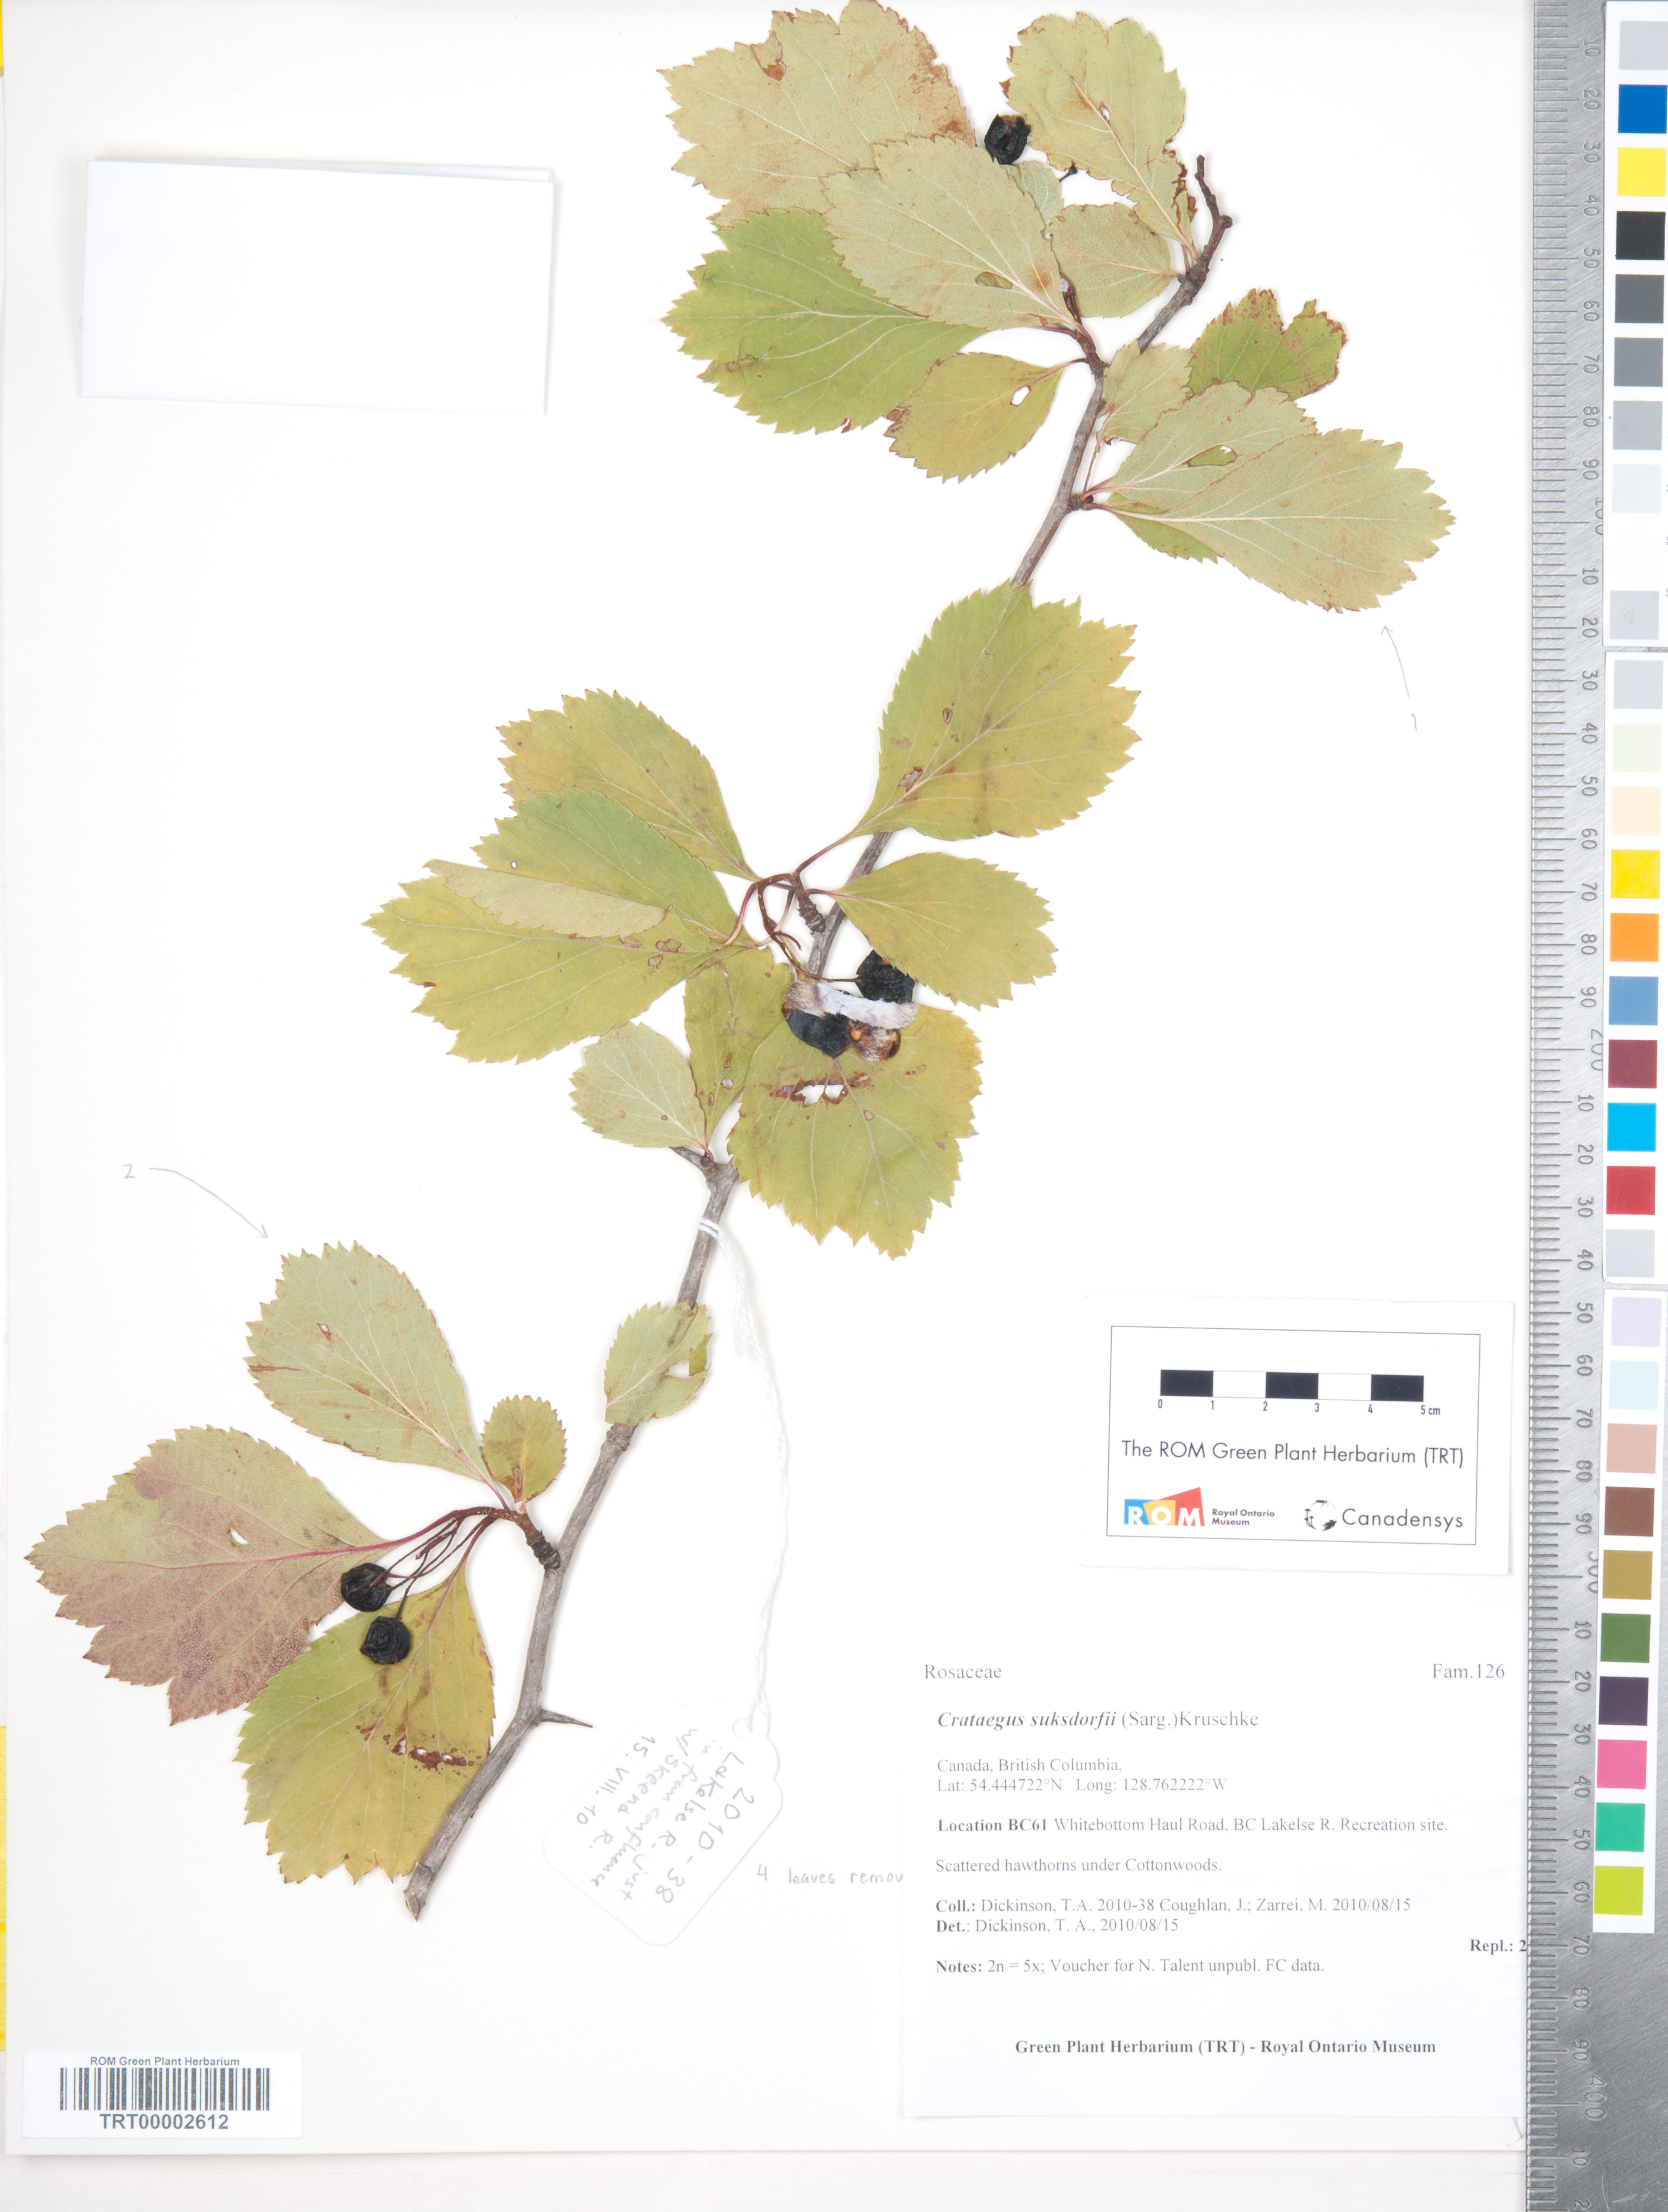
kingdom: Plantae
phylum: Tracheophyta
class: Magnoliopsida
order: Rosales
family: Rosaceae
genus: Crataegus
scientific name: Crataegus douglasii
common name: Black hawthorn
